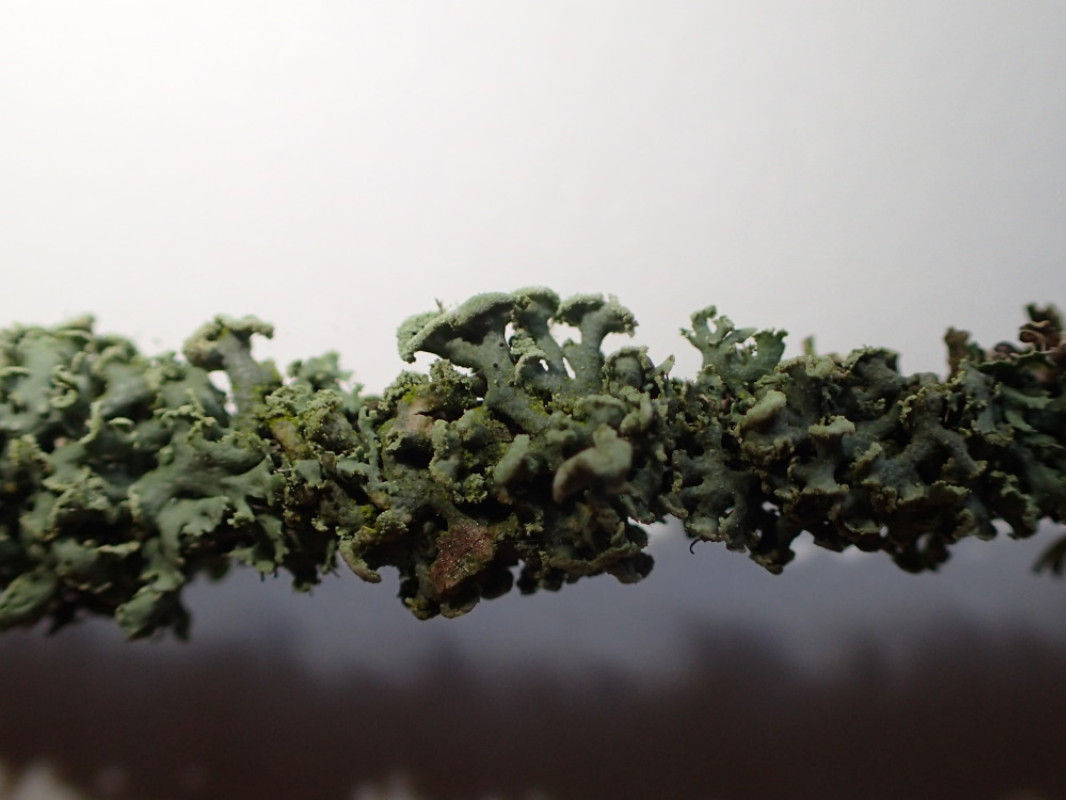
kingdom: Fungi
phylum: Ascomycota
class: Lecanoromycetes
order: Caliciales
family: Physciaceae
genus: Physcia
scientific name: Physcia tenella
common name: spæd rosetlav
